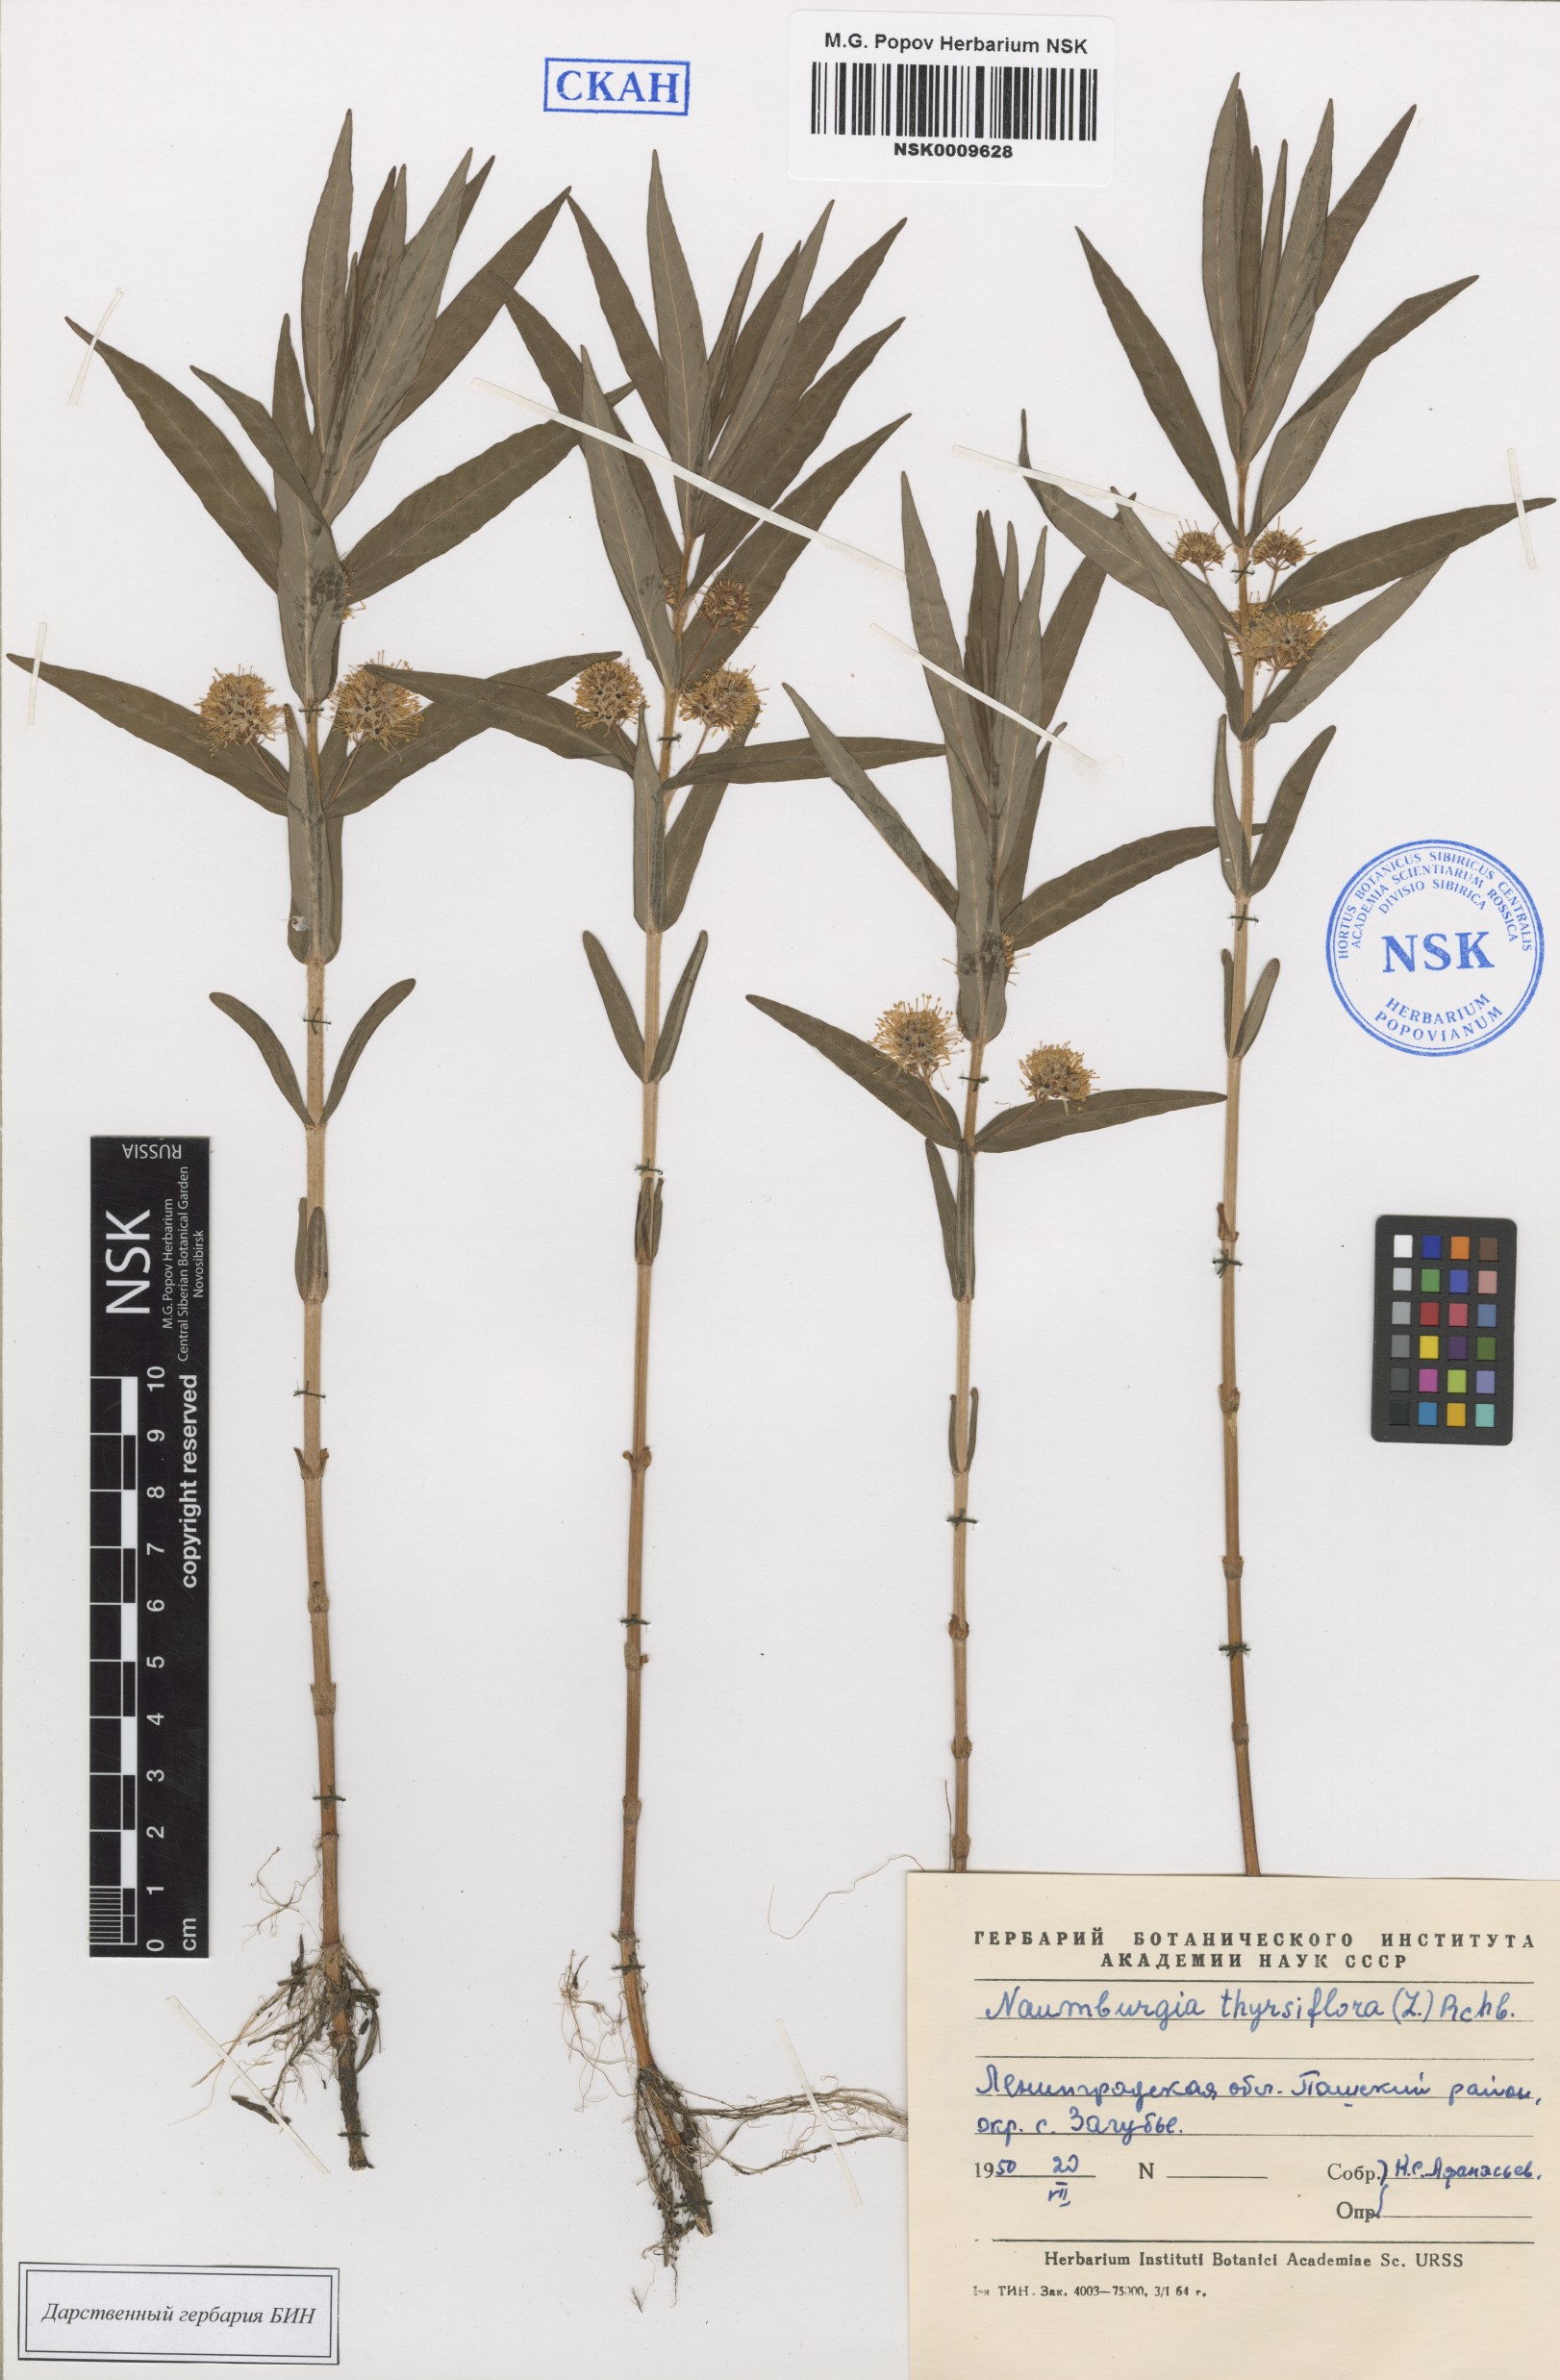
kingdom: Plantae
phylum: Tracheophyta
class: Magnoliopsida
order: Ericales
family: Primulaceae
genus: Lysimachia
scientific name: Lysimachia thyrsiflora
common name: Tufted loosestrife
